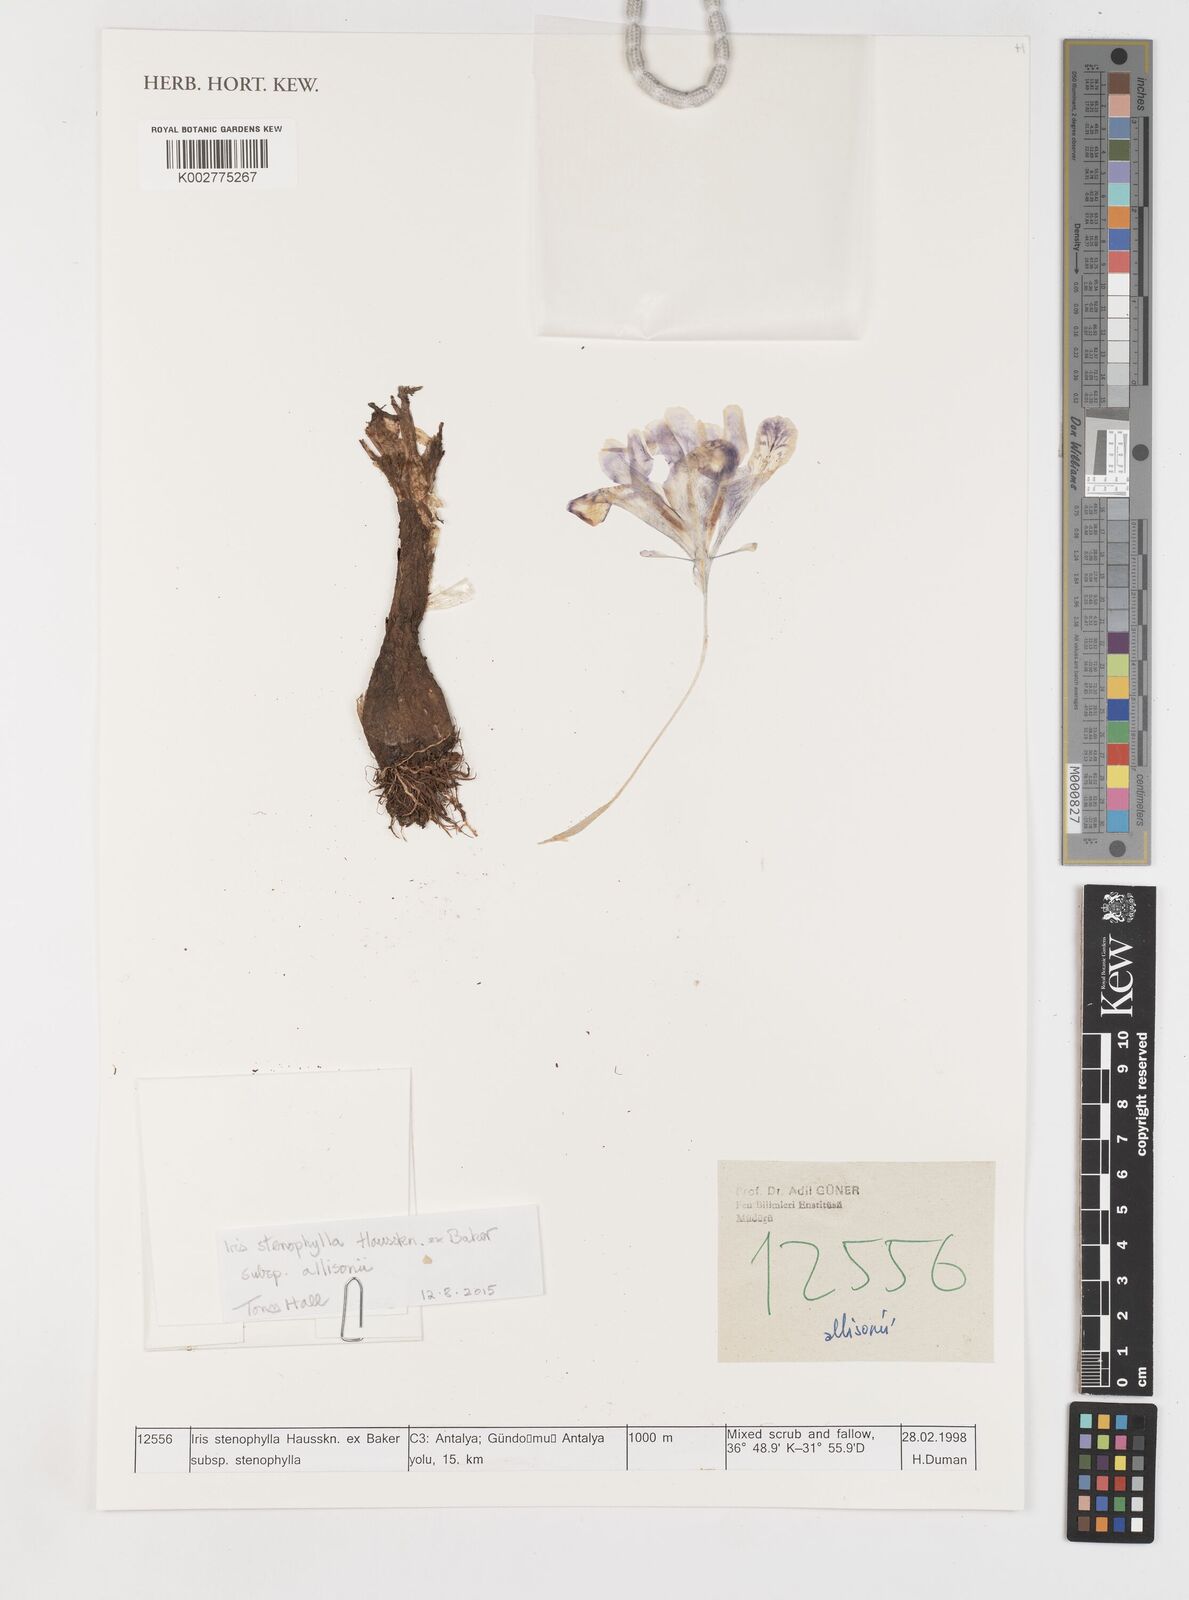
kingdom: Plantae
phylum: Tracheophyta
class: Liliopsida
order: Asparagales
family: Iridaceae
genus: Iris
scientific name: Iris stenophylla
